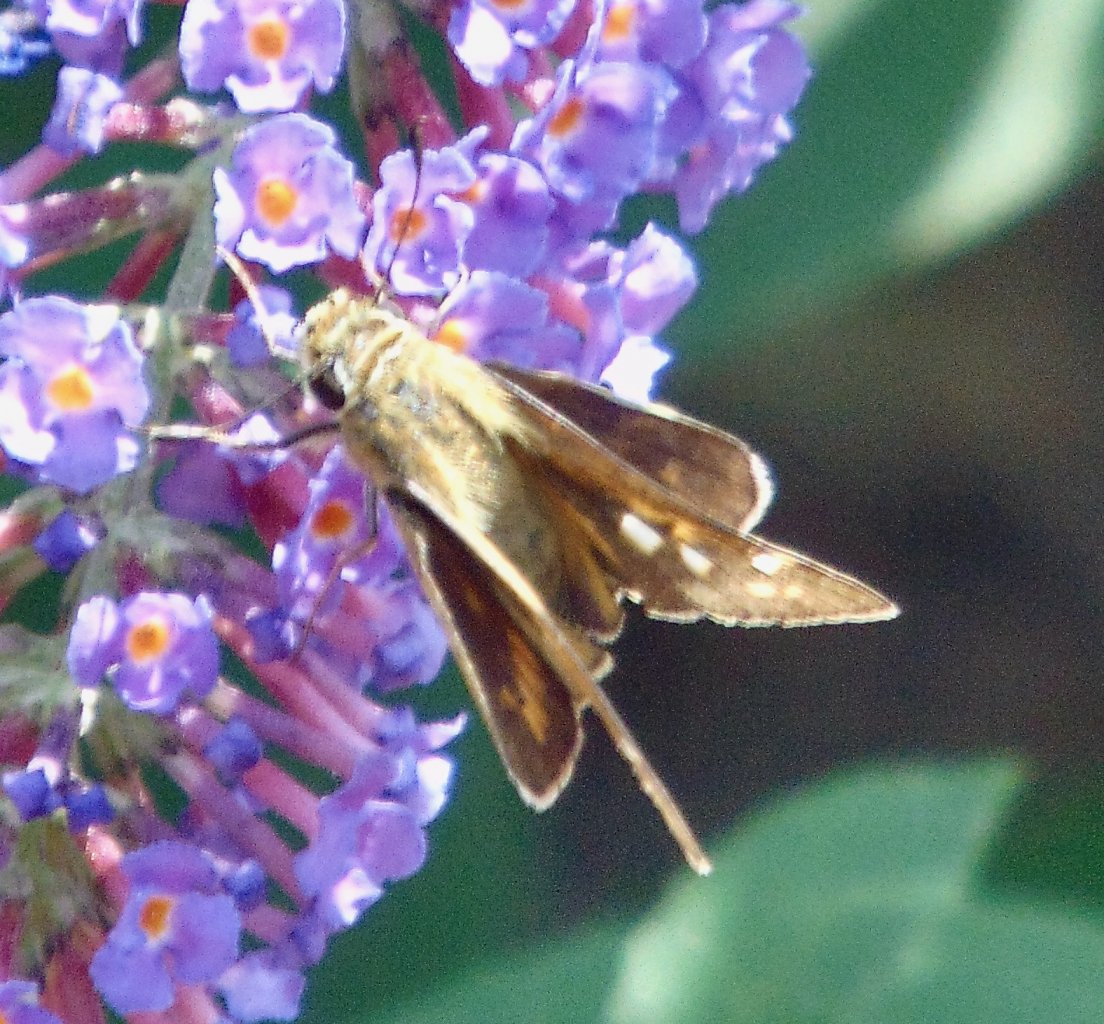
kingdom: Animalia
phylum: Arthropoda
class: Insecta
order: Lepidoptera
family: Hesperiidae
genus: Atalopedes
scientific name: Atalopedes campestris
